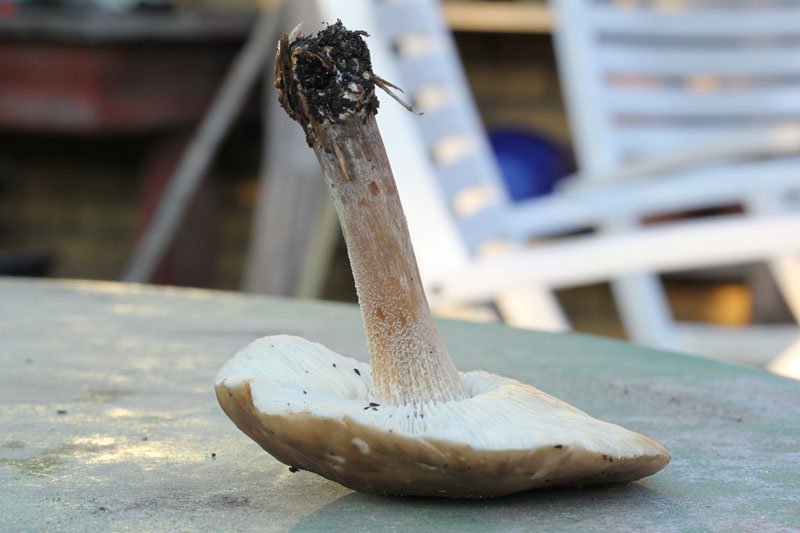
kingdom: Fungi
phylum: Basidiomycota
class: Agaricomycetes
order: Agaricales
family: Tricholomataceae
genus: Melanoleuca
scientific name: Melanoleuca polioleuca
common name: almindelig munkehat
